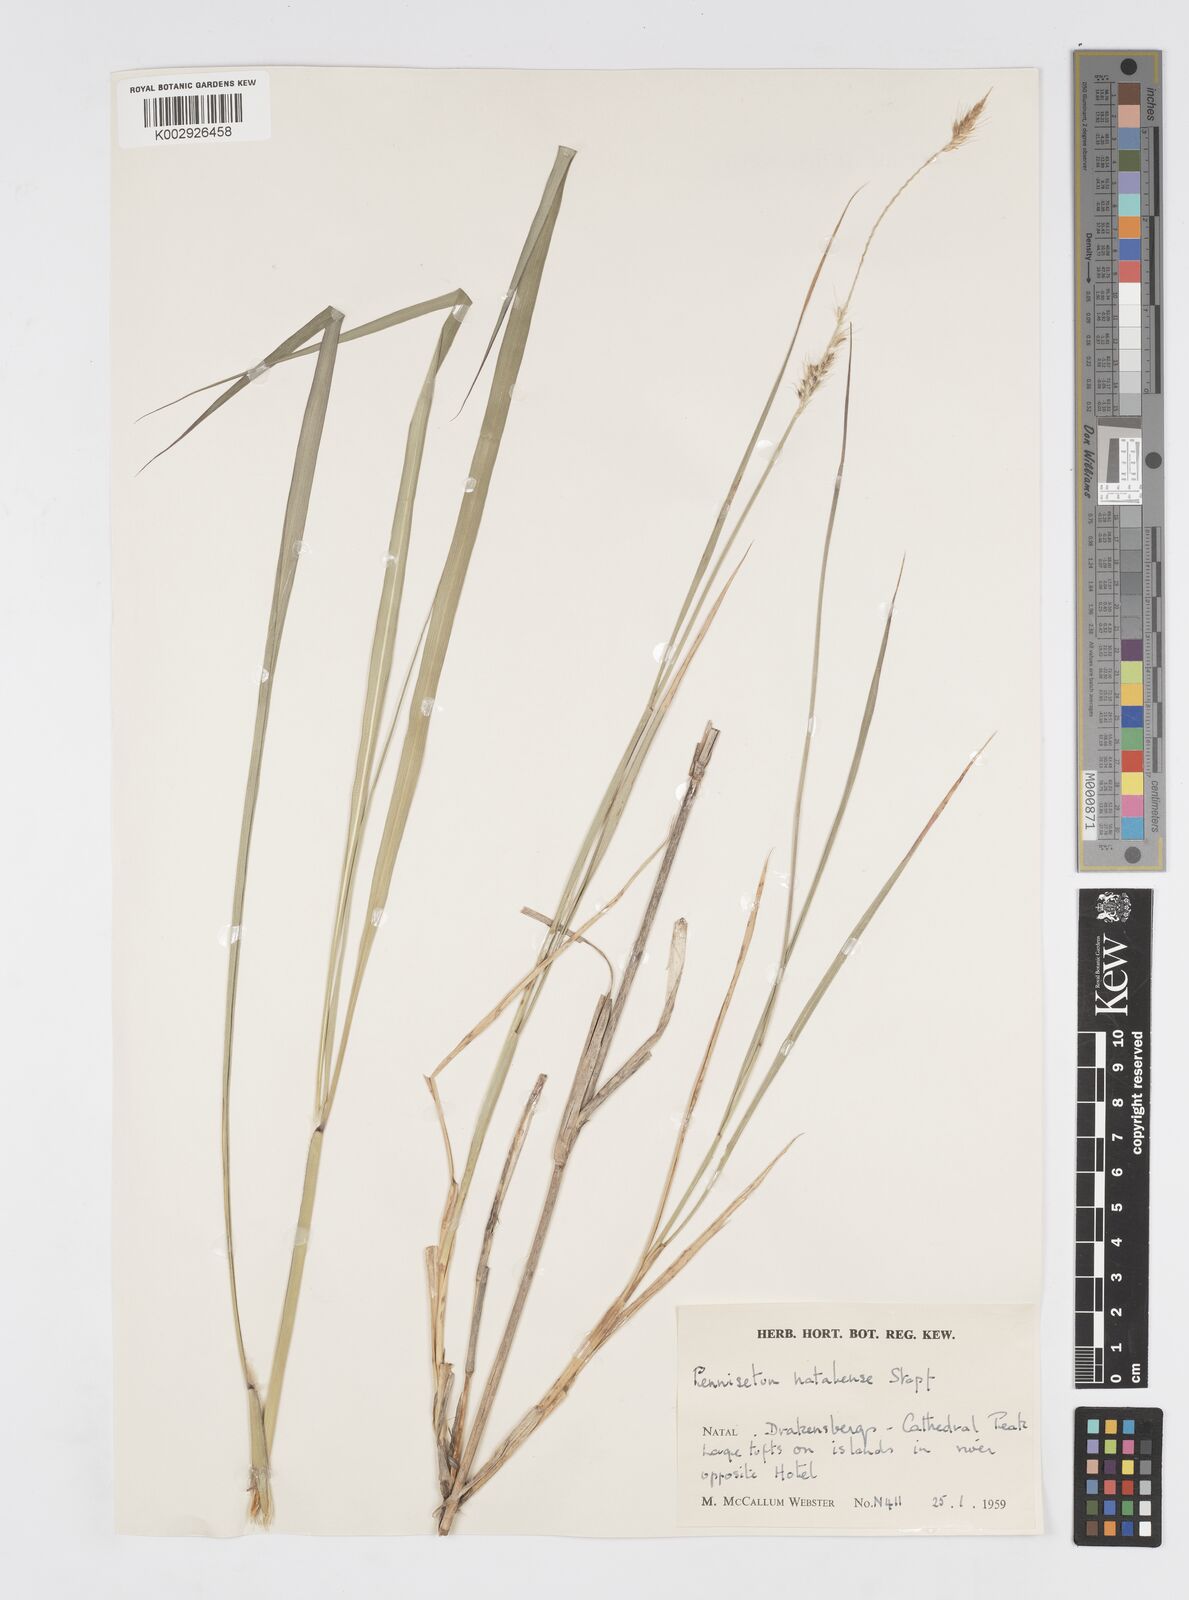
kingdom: Plantae
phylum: Tracheophyta
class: Liliopsida
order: Poales
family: Poaceae
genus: Cenchrus
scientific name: Cenchrus caudatus
